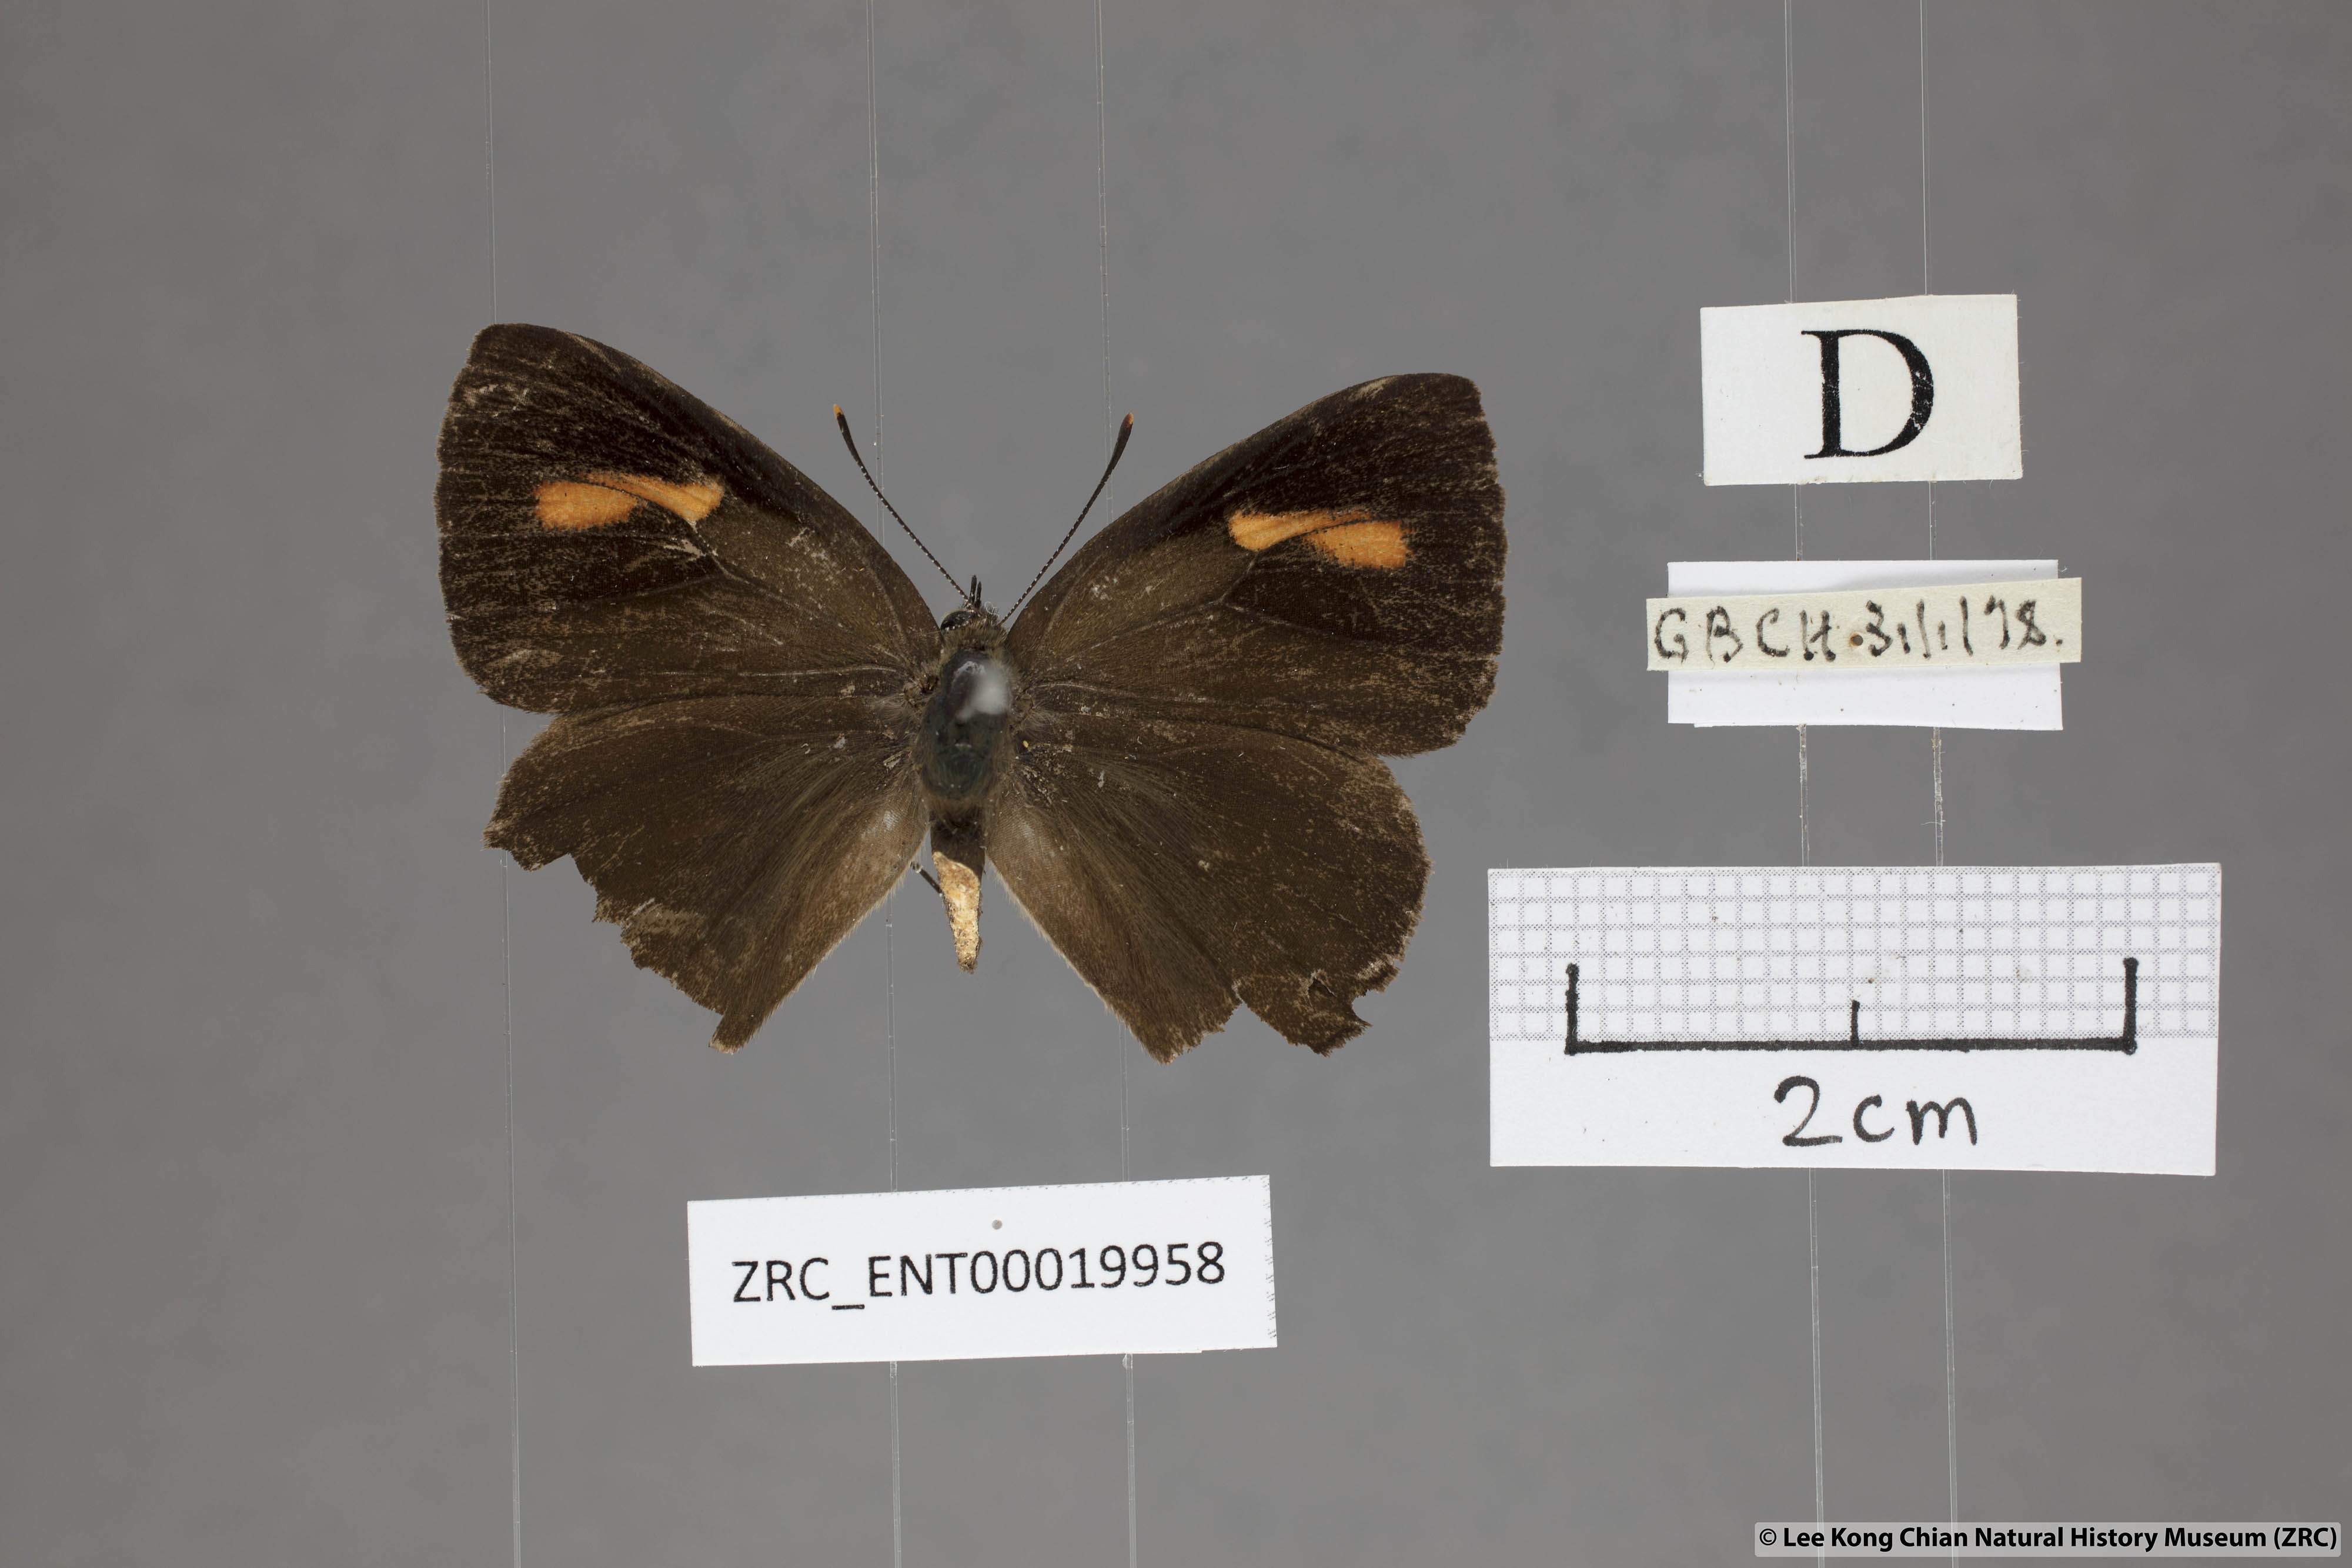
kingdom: Animalia
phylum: Arthropoda
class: Insecta
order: Lepidoptera
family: Lycaenidae
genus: Austrozephyrus
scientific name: Austrozephyrus absolon
